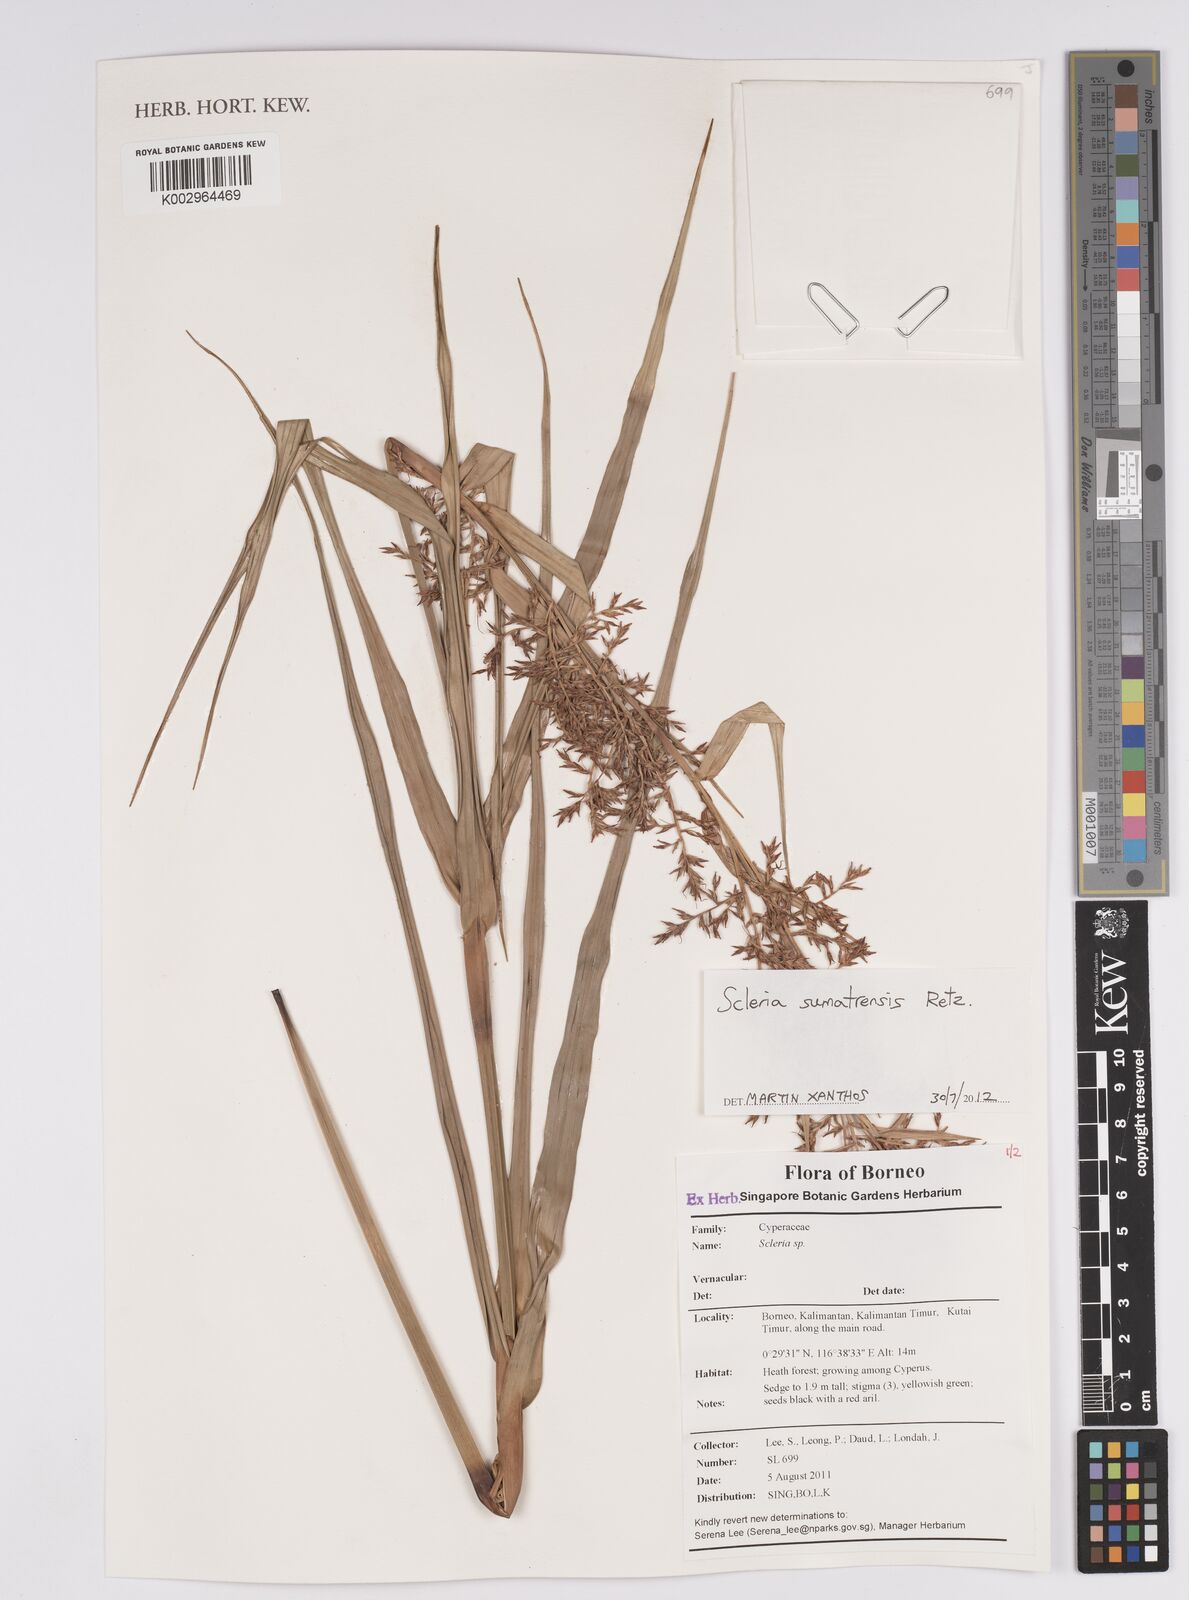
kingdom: Plantae
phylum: Tracheophyta
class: Liliopsida
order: Poales
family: Cyperaceae
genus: Scleria
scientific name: Scleria sumatrensis
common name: Sumatran scleria
